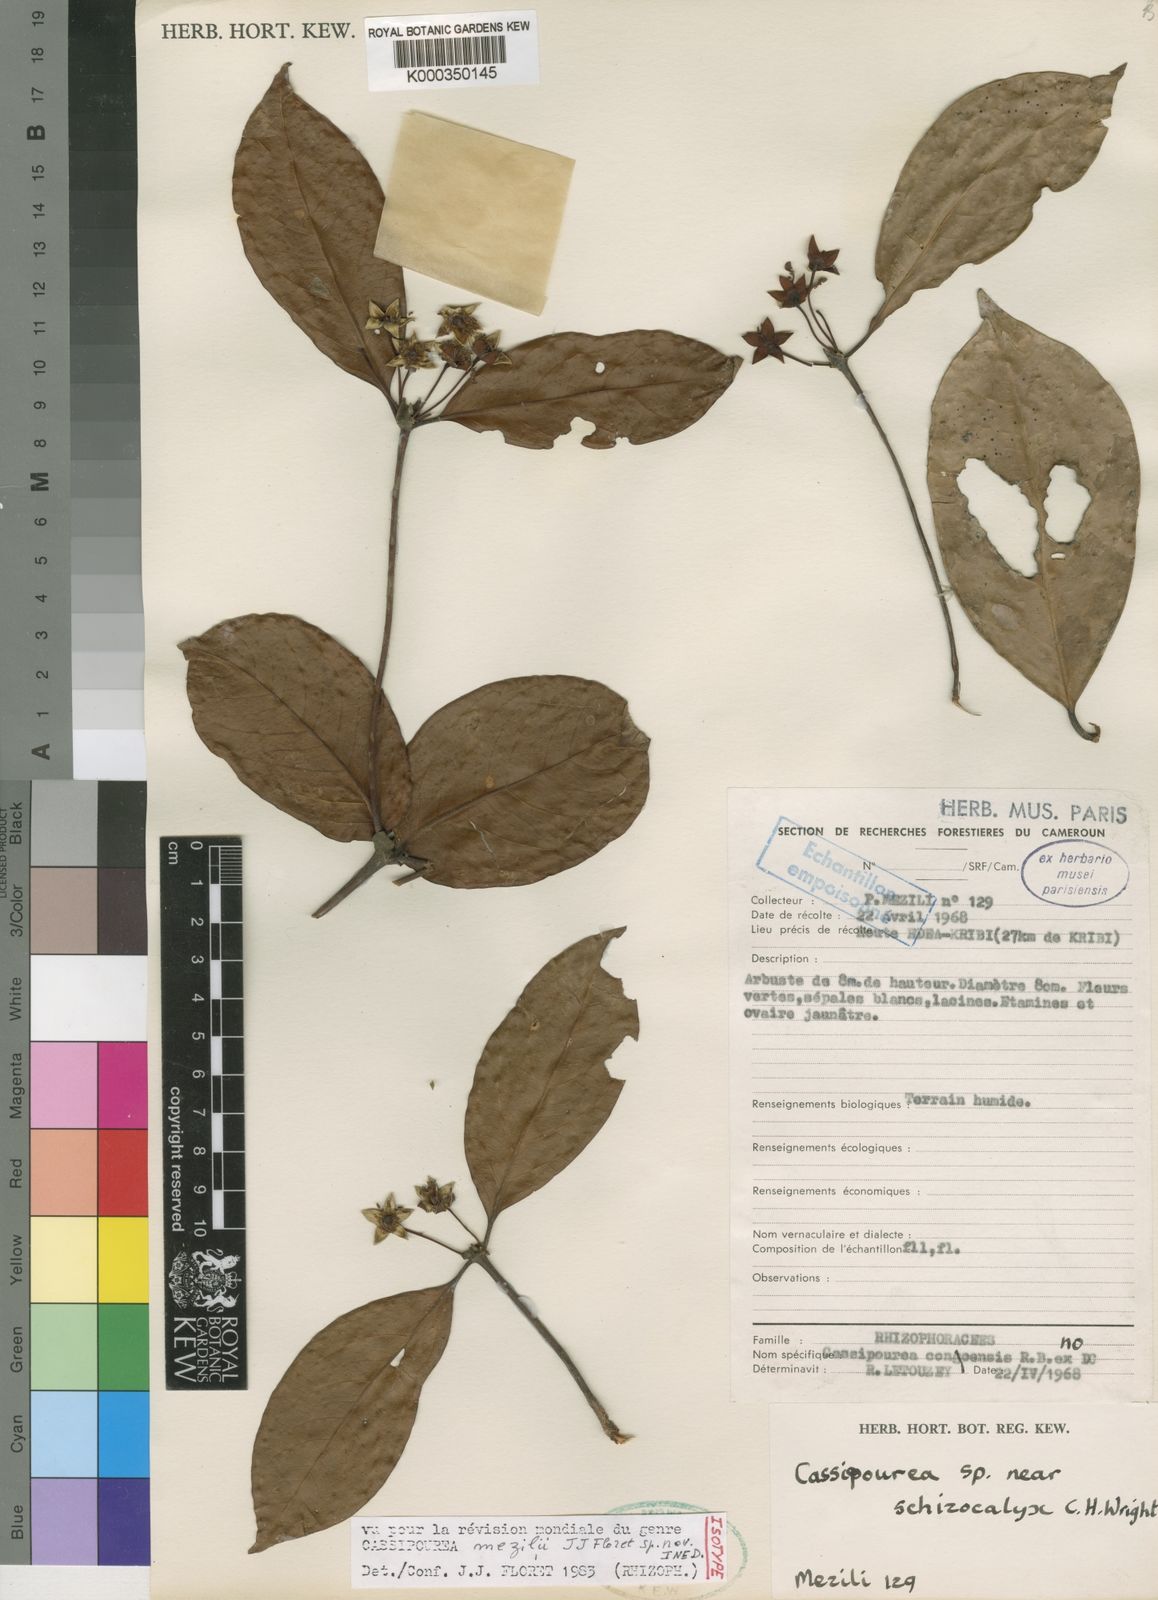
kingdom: Plantae
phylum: Tracheophyta
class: Magnoliopsida
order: Malpighiales
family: Rhizophoraceae
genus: Cassipourea
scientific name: Cassipourea
